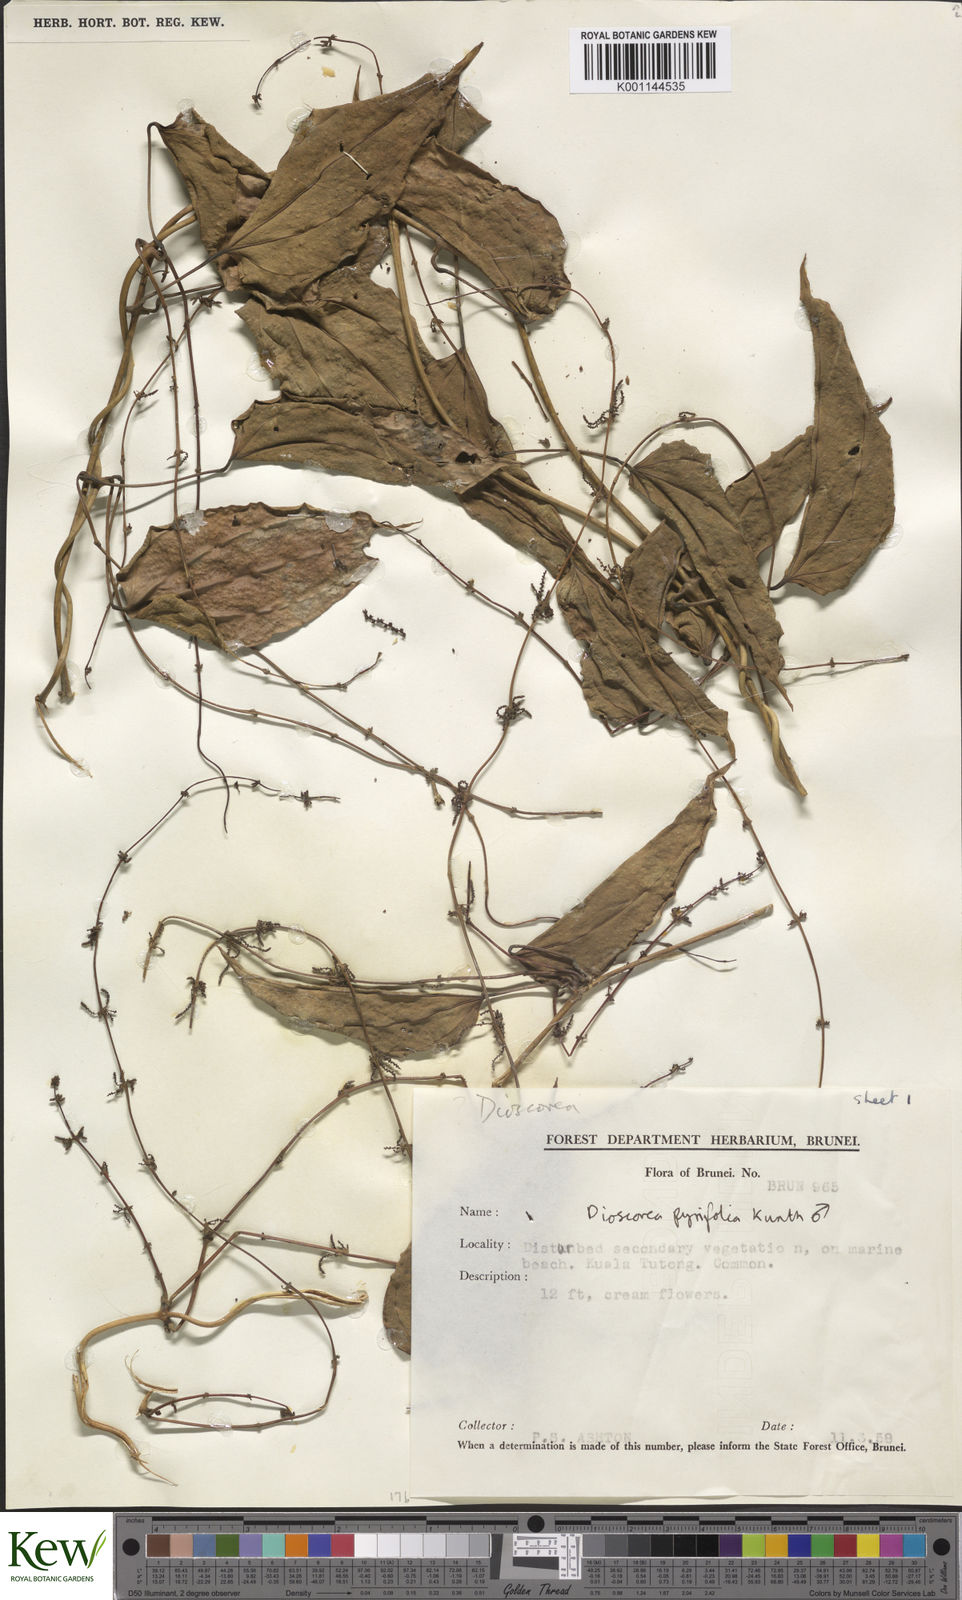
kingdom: Plantae
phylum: Tracheophyta
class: Liliopsida
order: Dioscoreales
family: Dioscoreaceae
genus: Dioscorea
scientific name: Dioscorea pyrifolia
